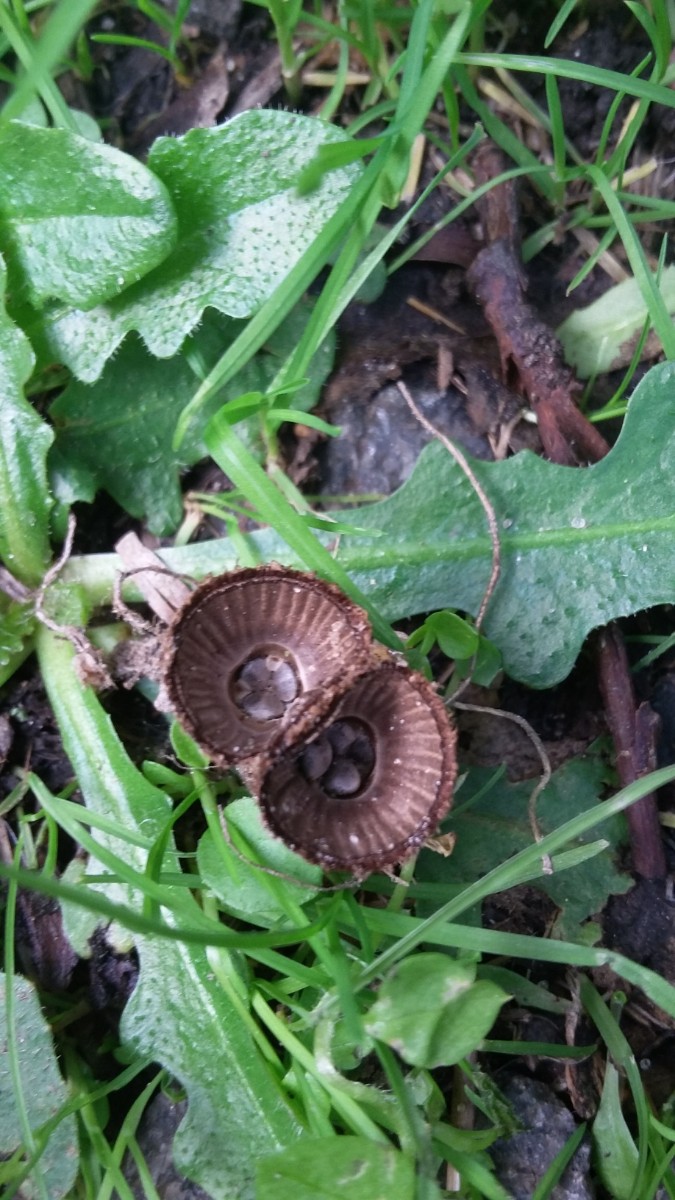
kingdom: Fungi
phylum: Basidiomycota
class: Agaricomycetes
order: Agaricales
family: Agaricaceae
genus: Cyathus
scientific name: Cyathus striatus
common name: stribet redesvamp
